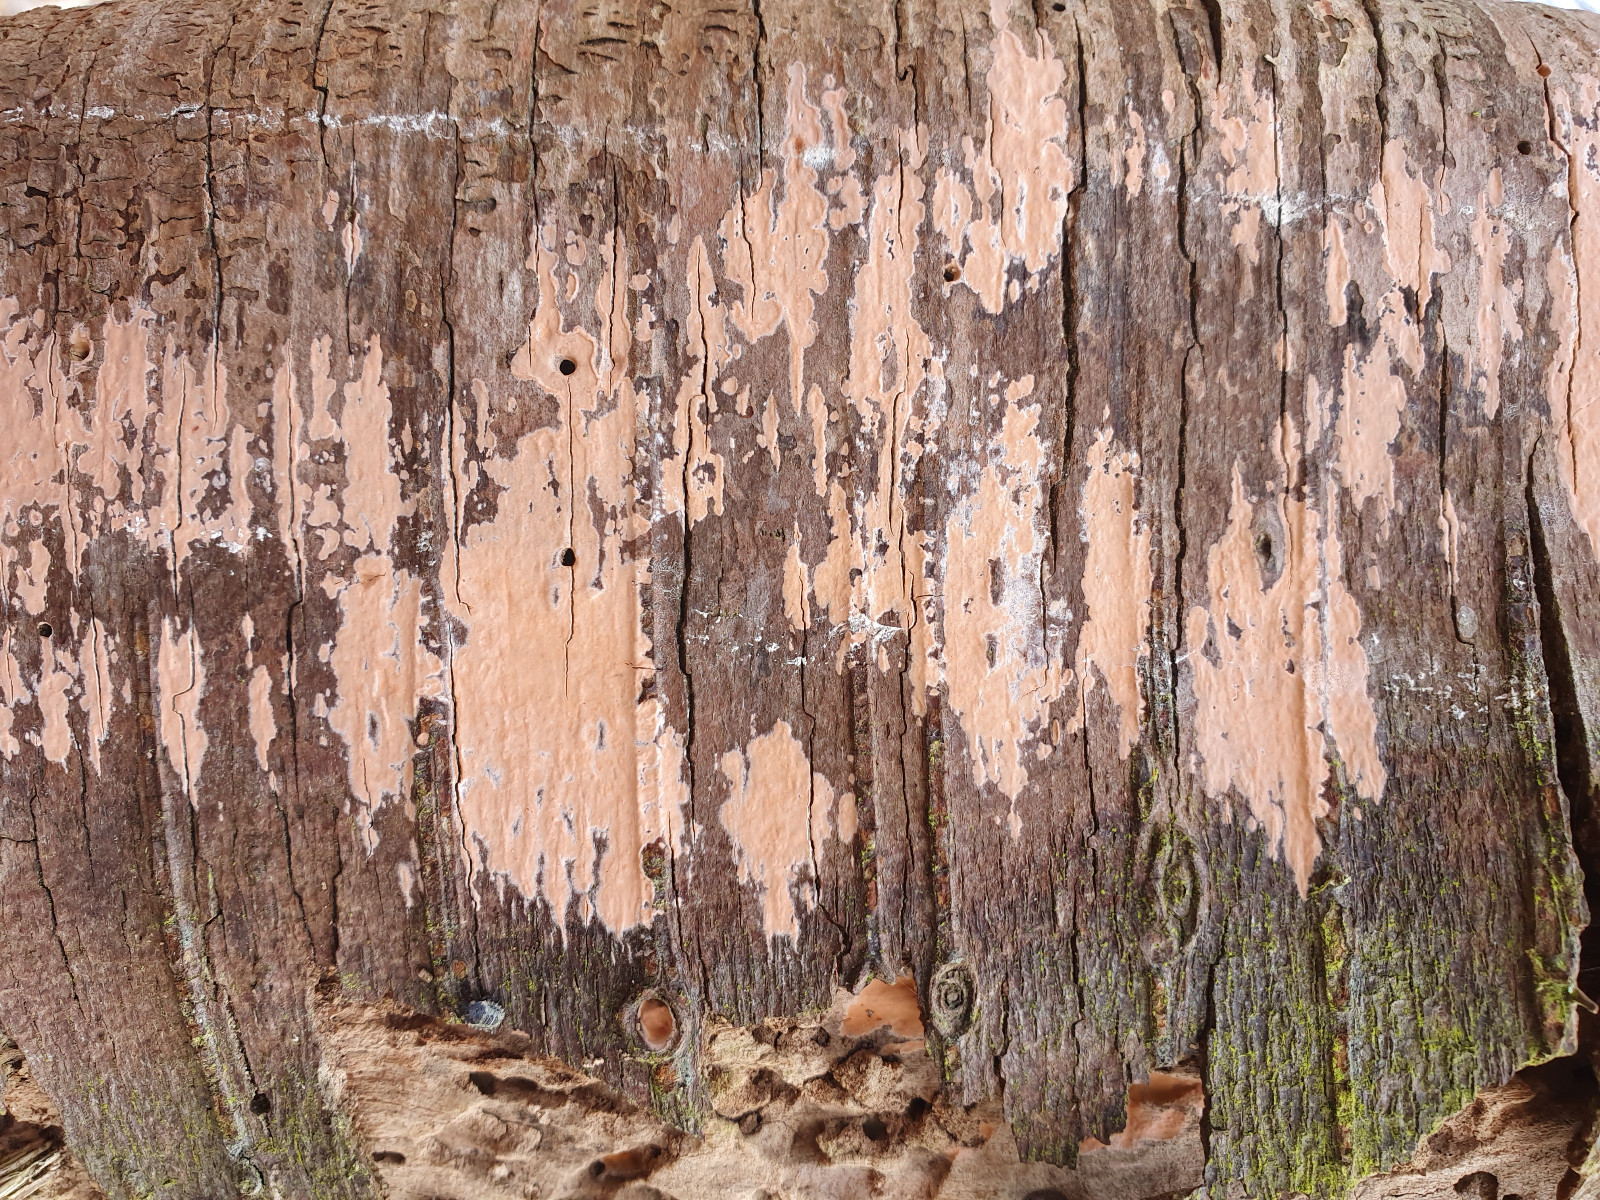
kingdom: Fungi
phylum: Basidiomycota
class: Agaricomycetes
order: Russulales
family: Peniophoraceae
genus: Peniophora
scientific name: Peniophora incarnata
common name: laksefarvet voksskind
